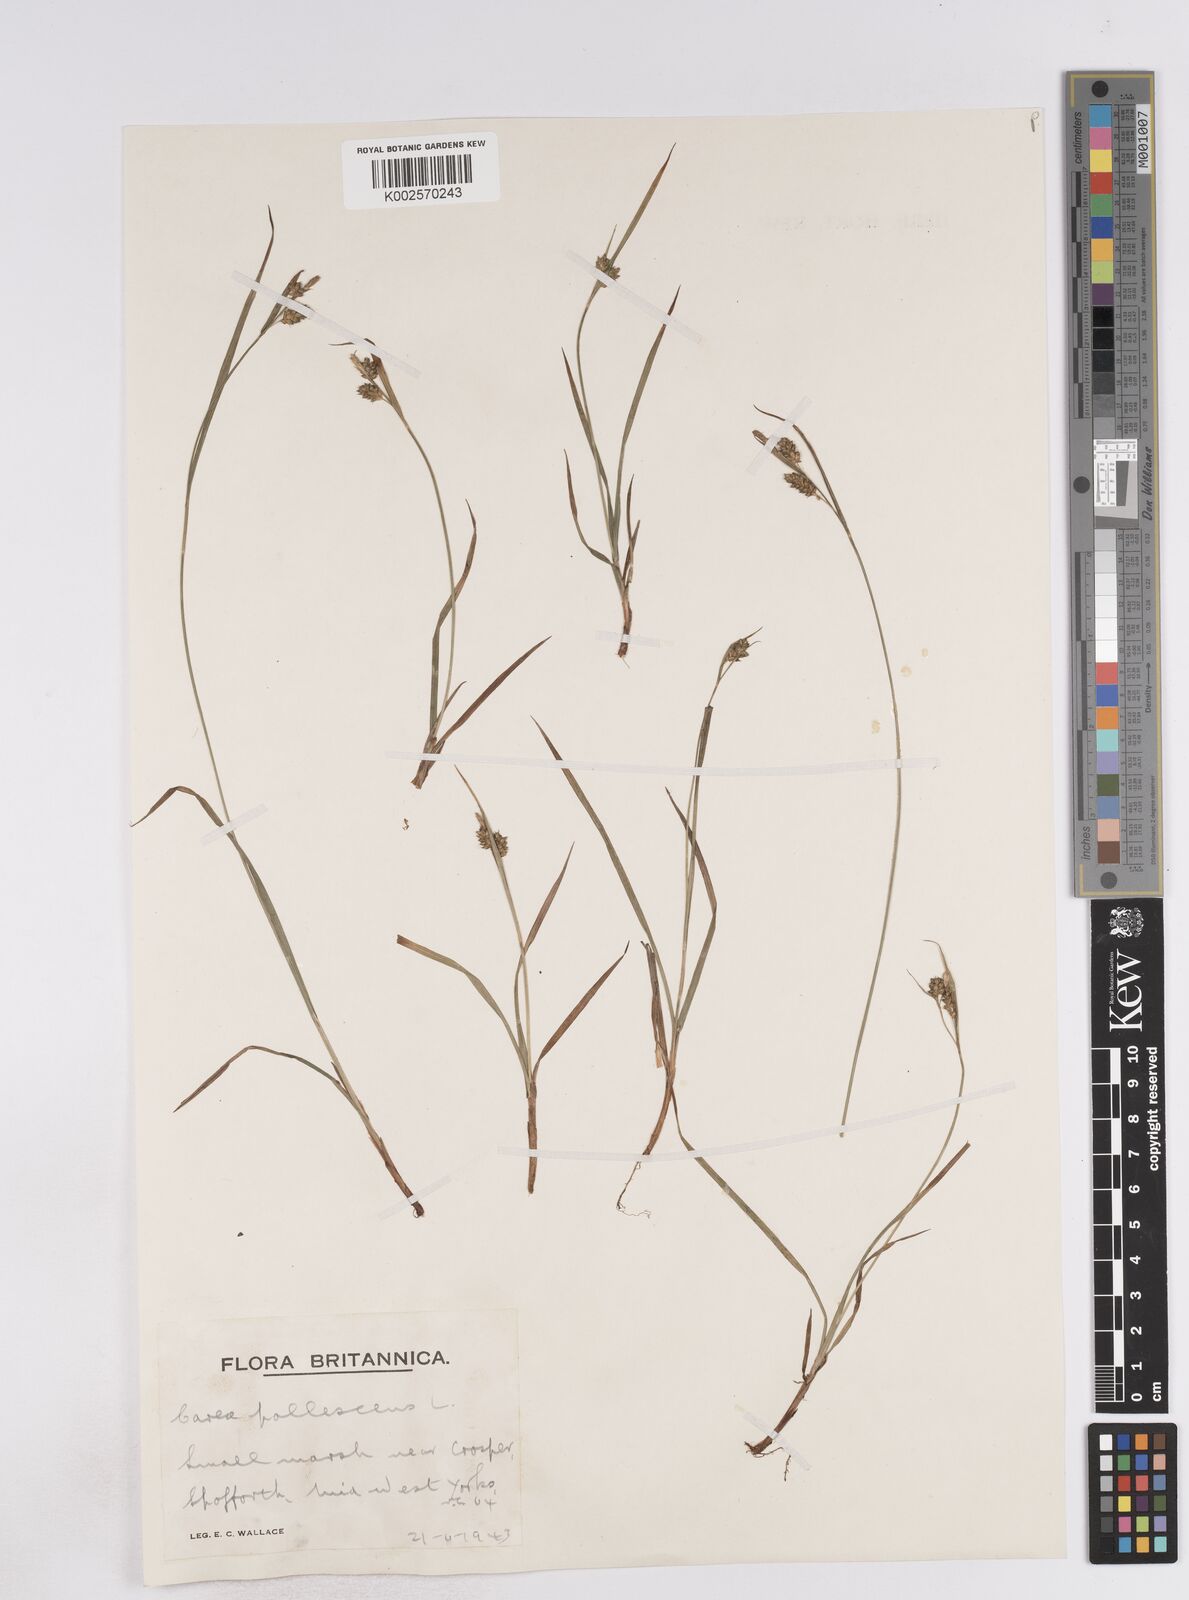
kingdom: Plantae
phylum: Tracheophyta
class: Liliopsida
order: Poales
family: Cyperaceae
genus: Carex
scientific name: Carex pallescens
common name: Pale sedge
